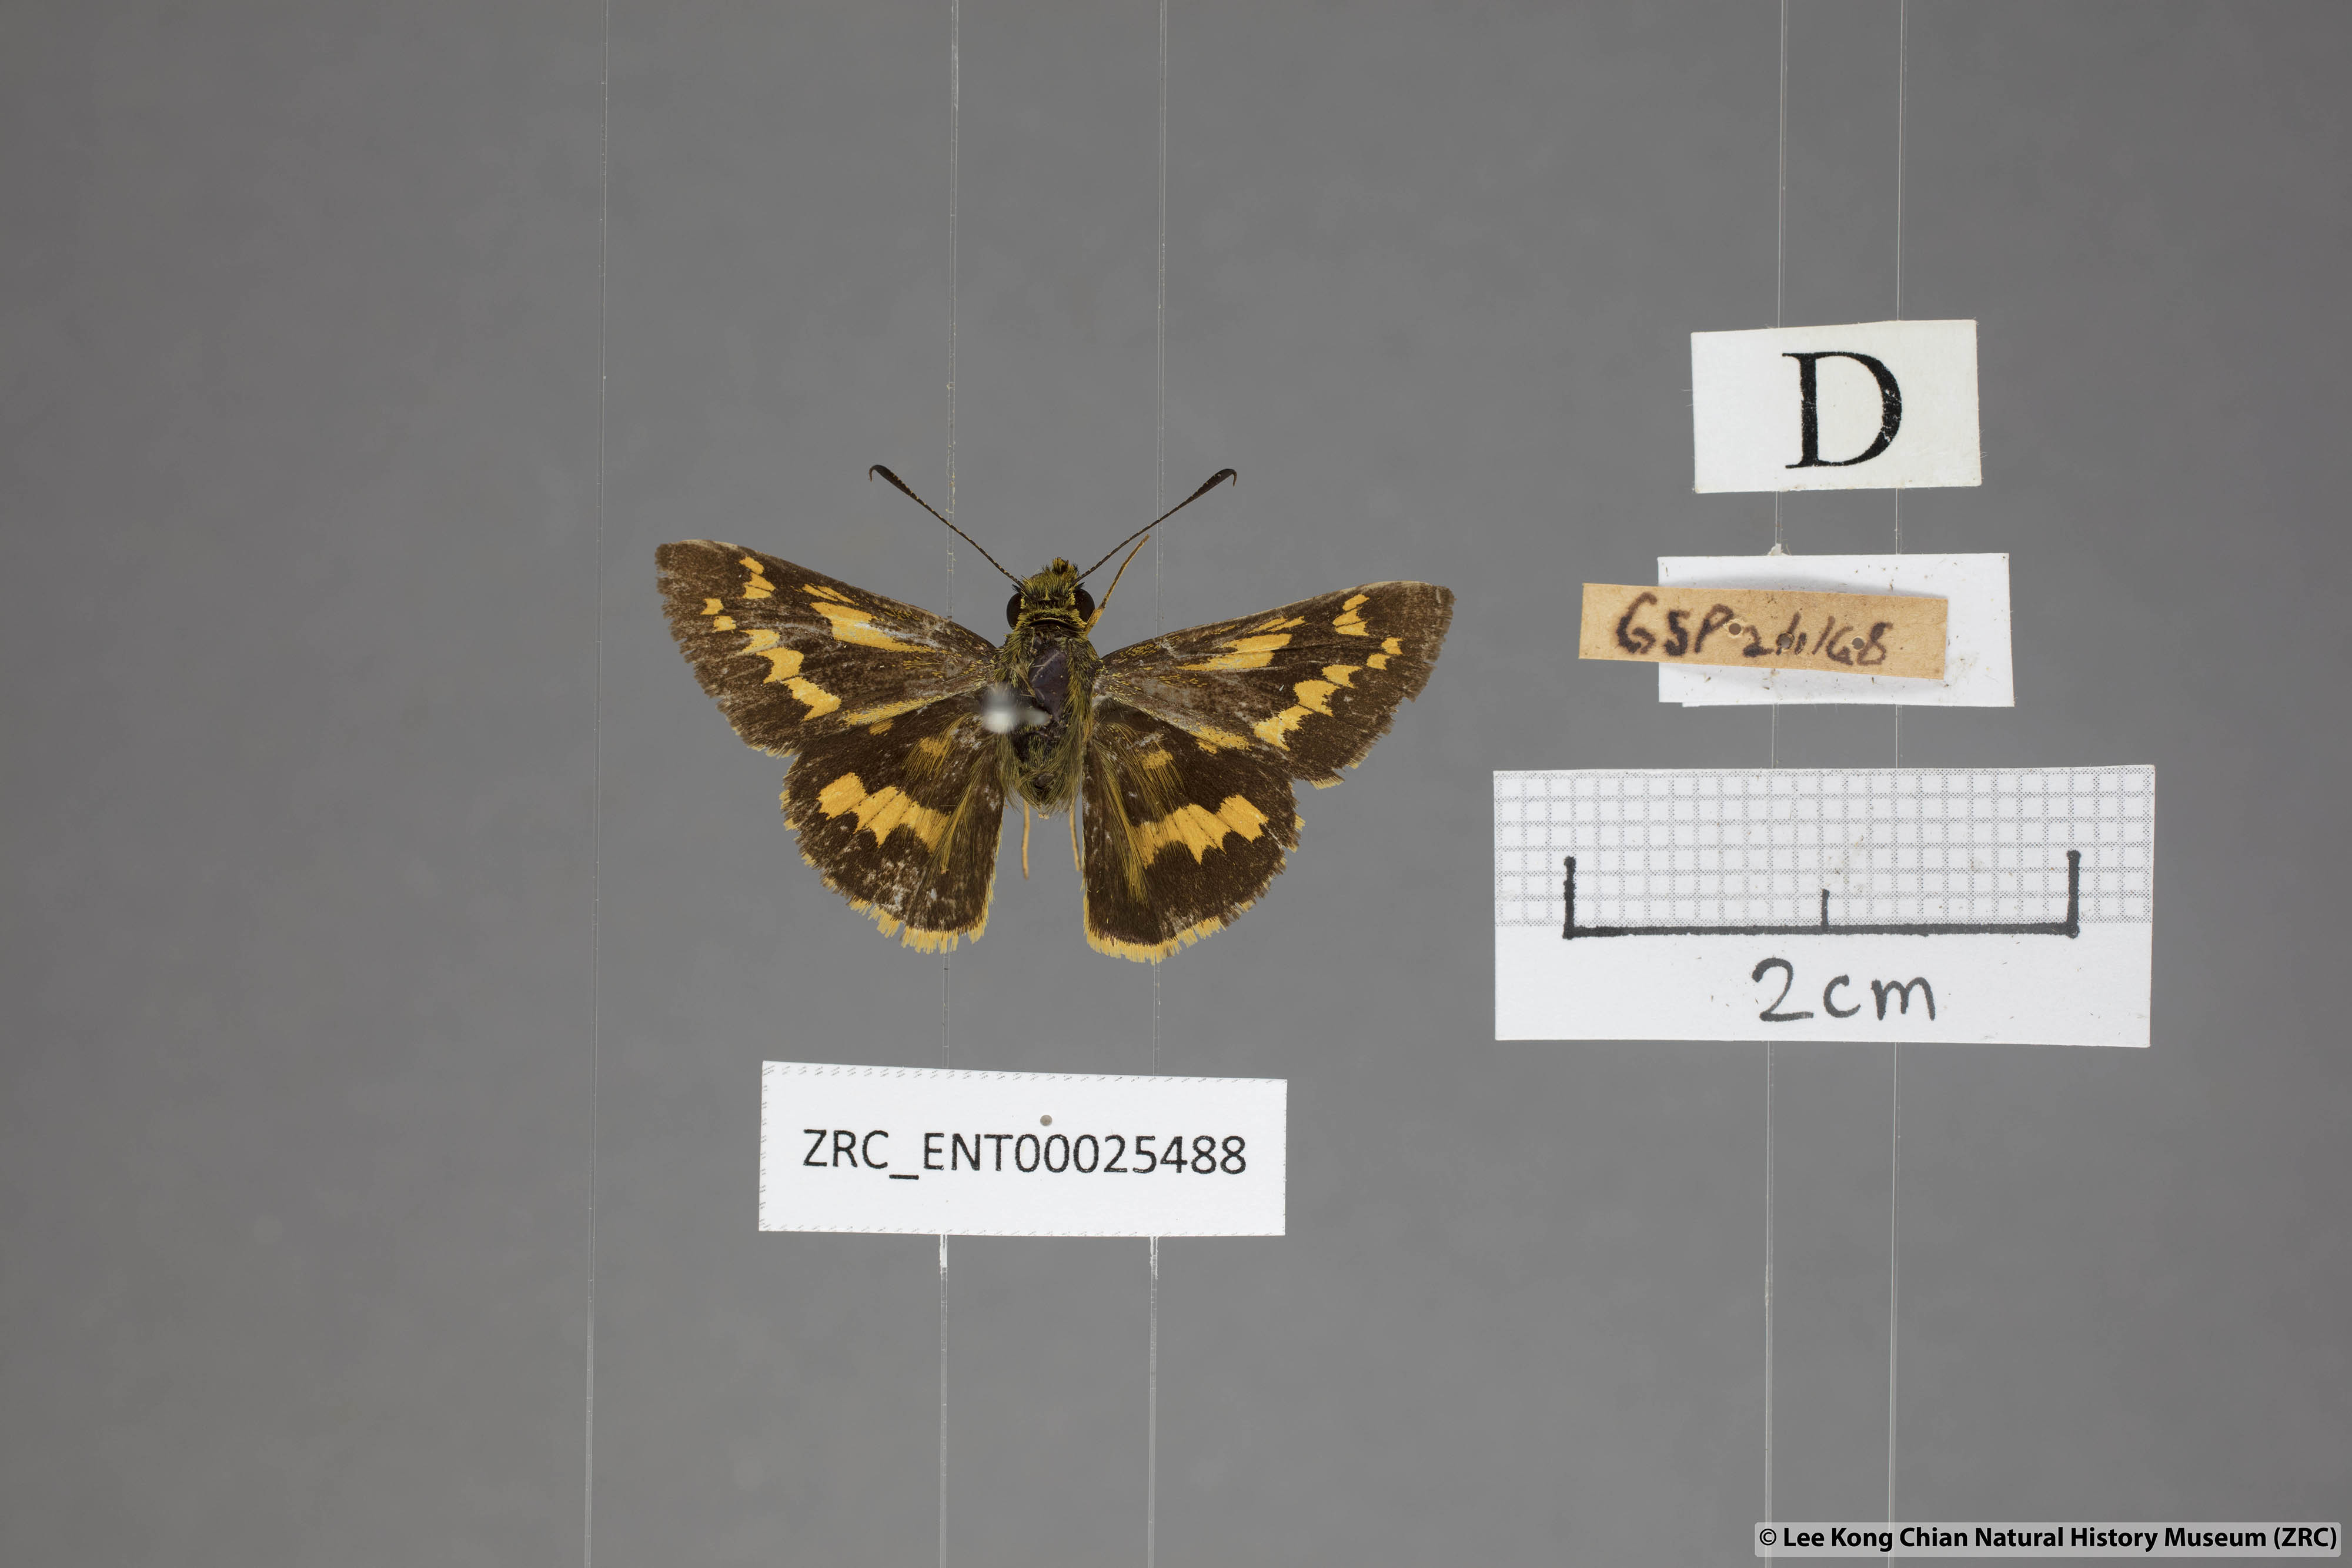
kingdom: Animalia
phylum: Arthropoda
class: Insecta
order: Lepidoptera
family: Hesperiidae
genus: Potanthus
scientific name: Potanthus trachala
